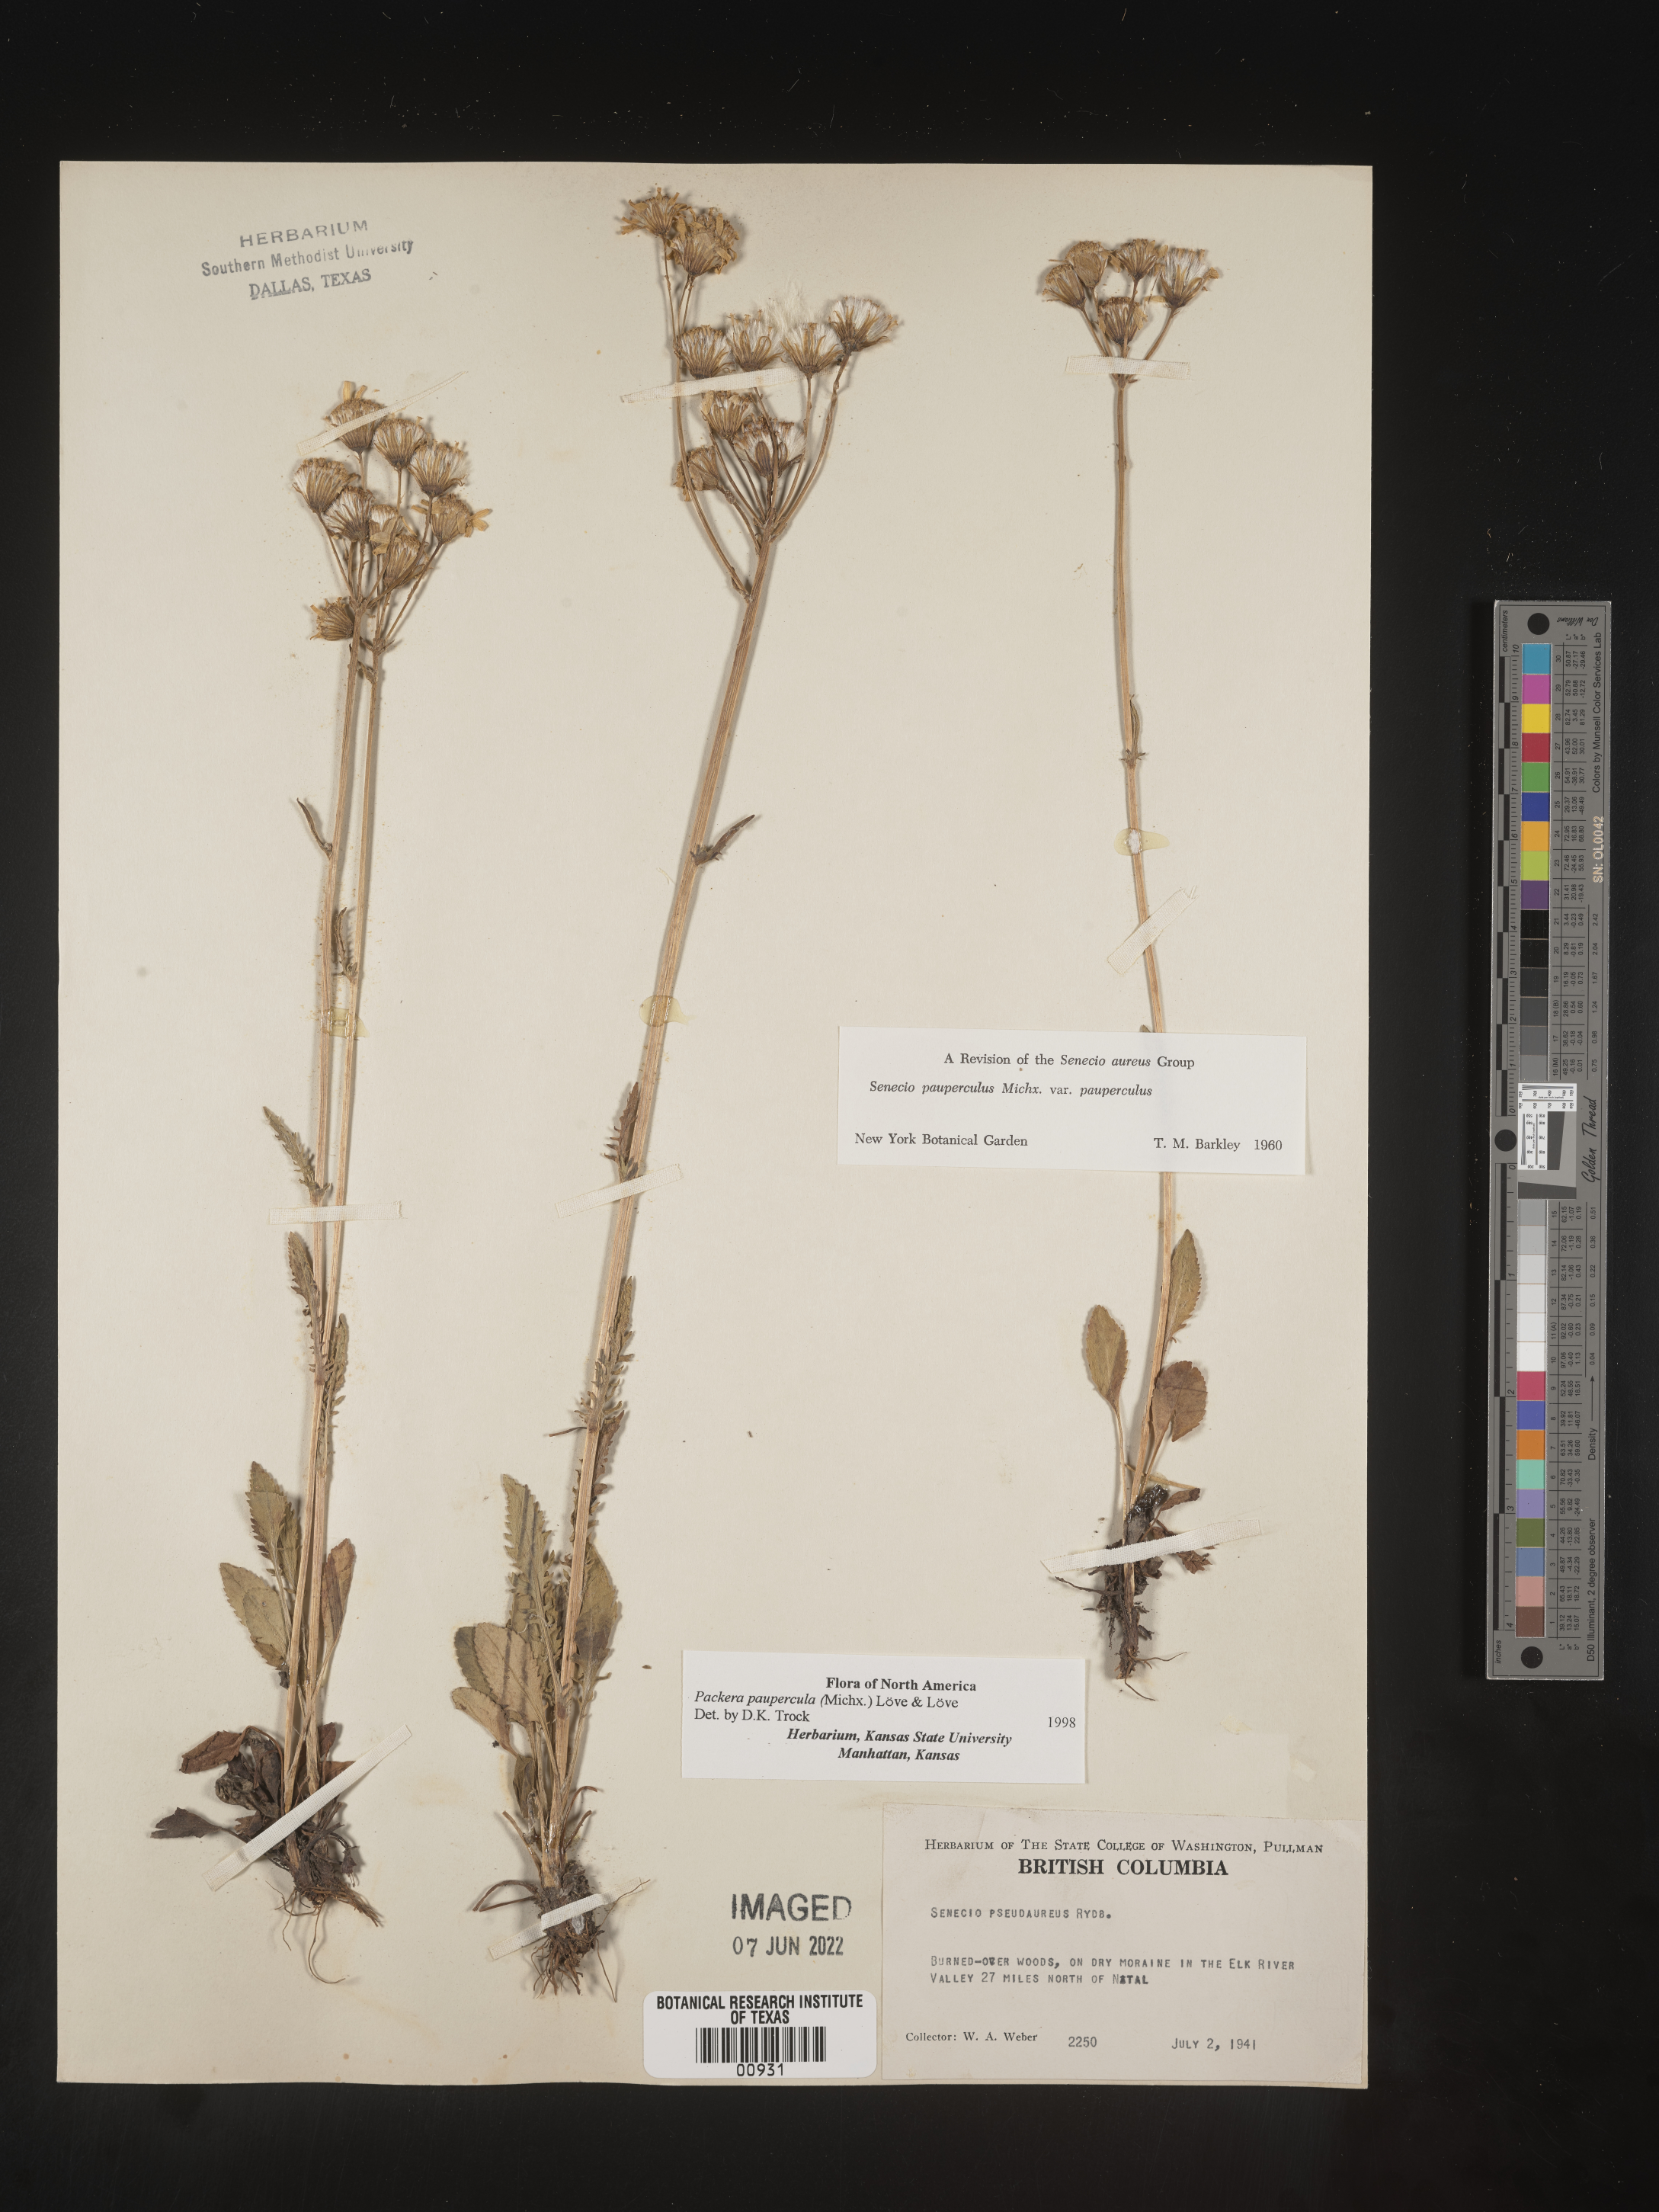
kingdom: Plantae
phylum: Tracheophyta
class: Magnoliopsida
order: Asterales
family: Asteraceae
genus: Packera
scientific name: Packera paupercula
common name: Balsam groundsel
